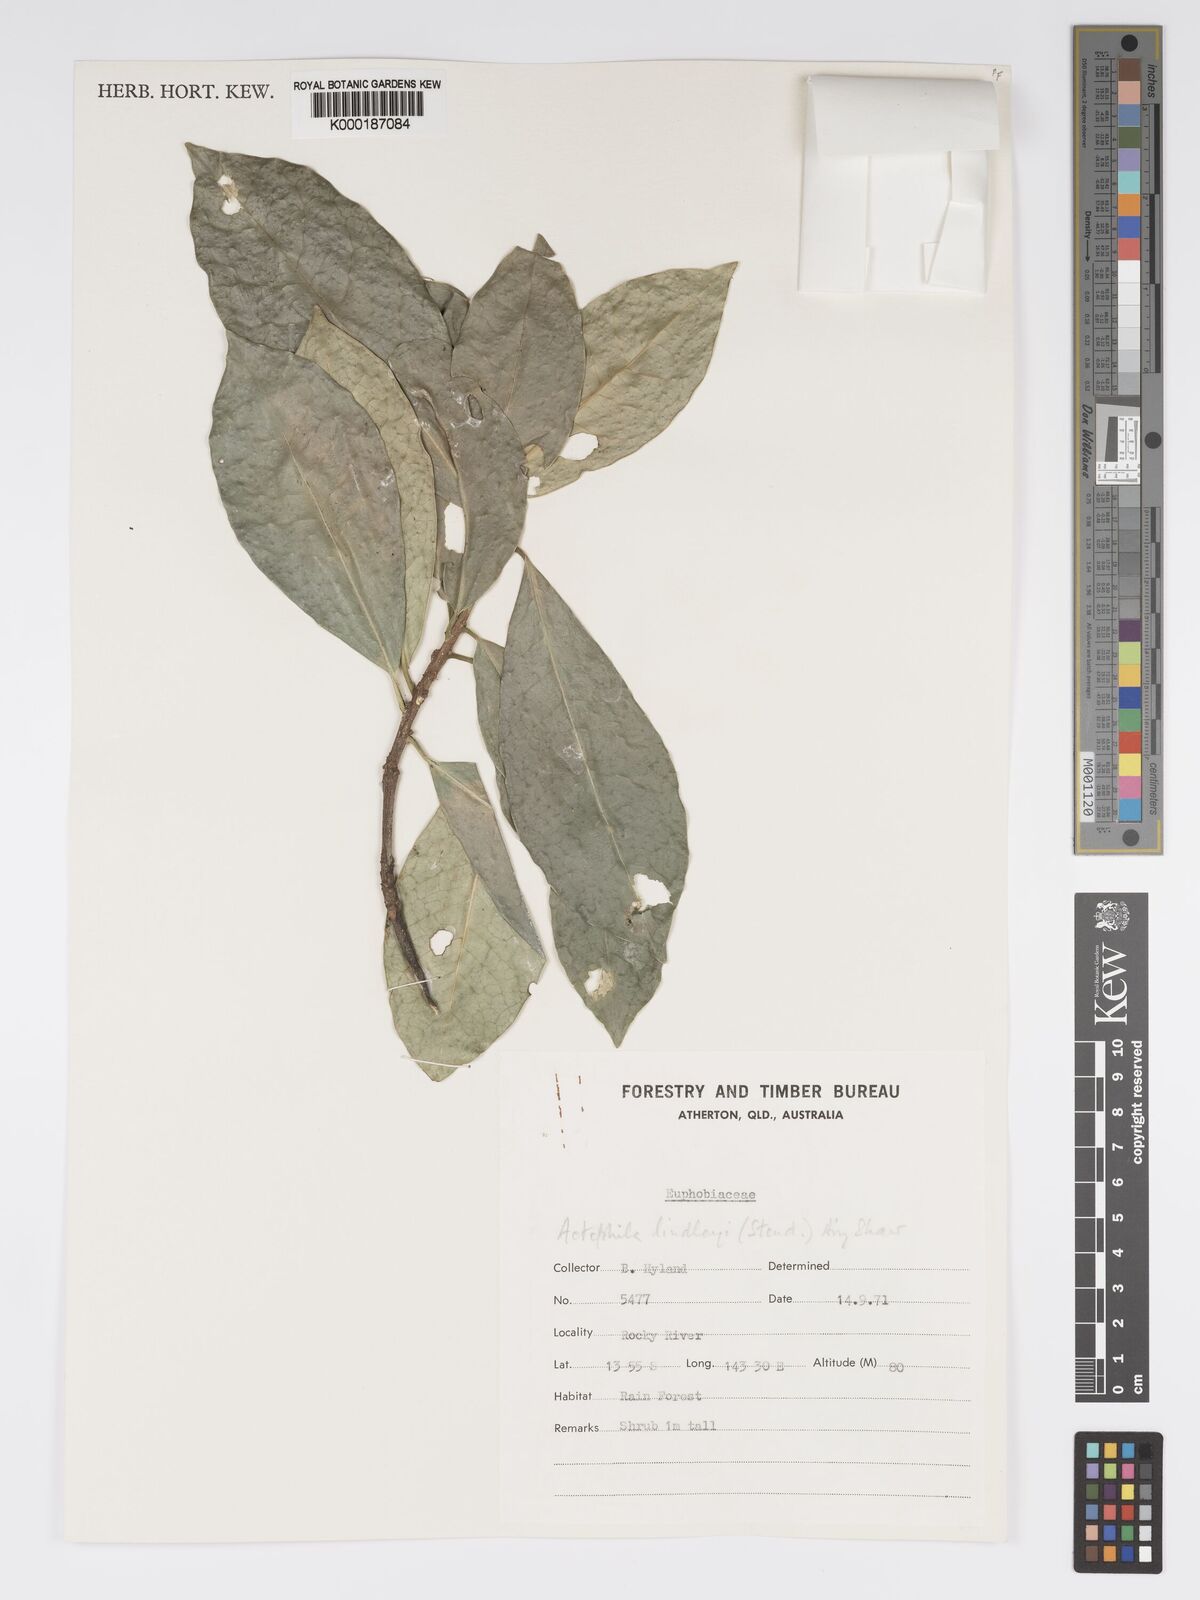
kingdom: Plantae
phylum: Tracheophyta
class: Magnoliopsida
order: Malpighiales
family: Phyllanthaceae
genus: Actephila
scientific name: Actephila lindleyi
